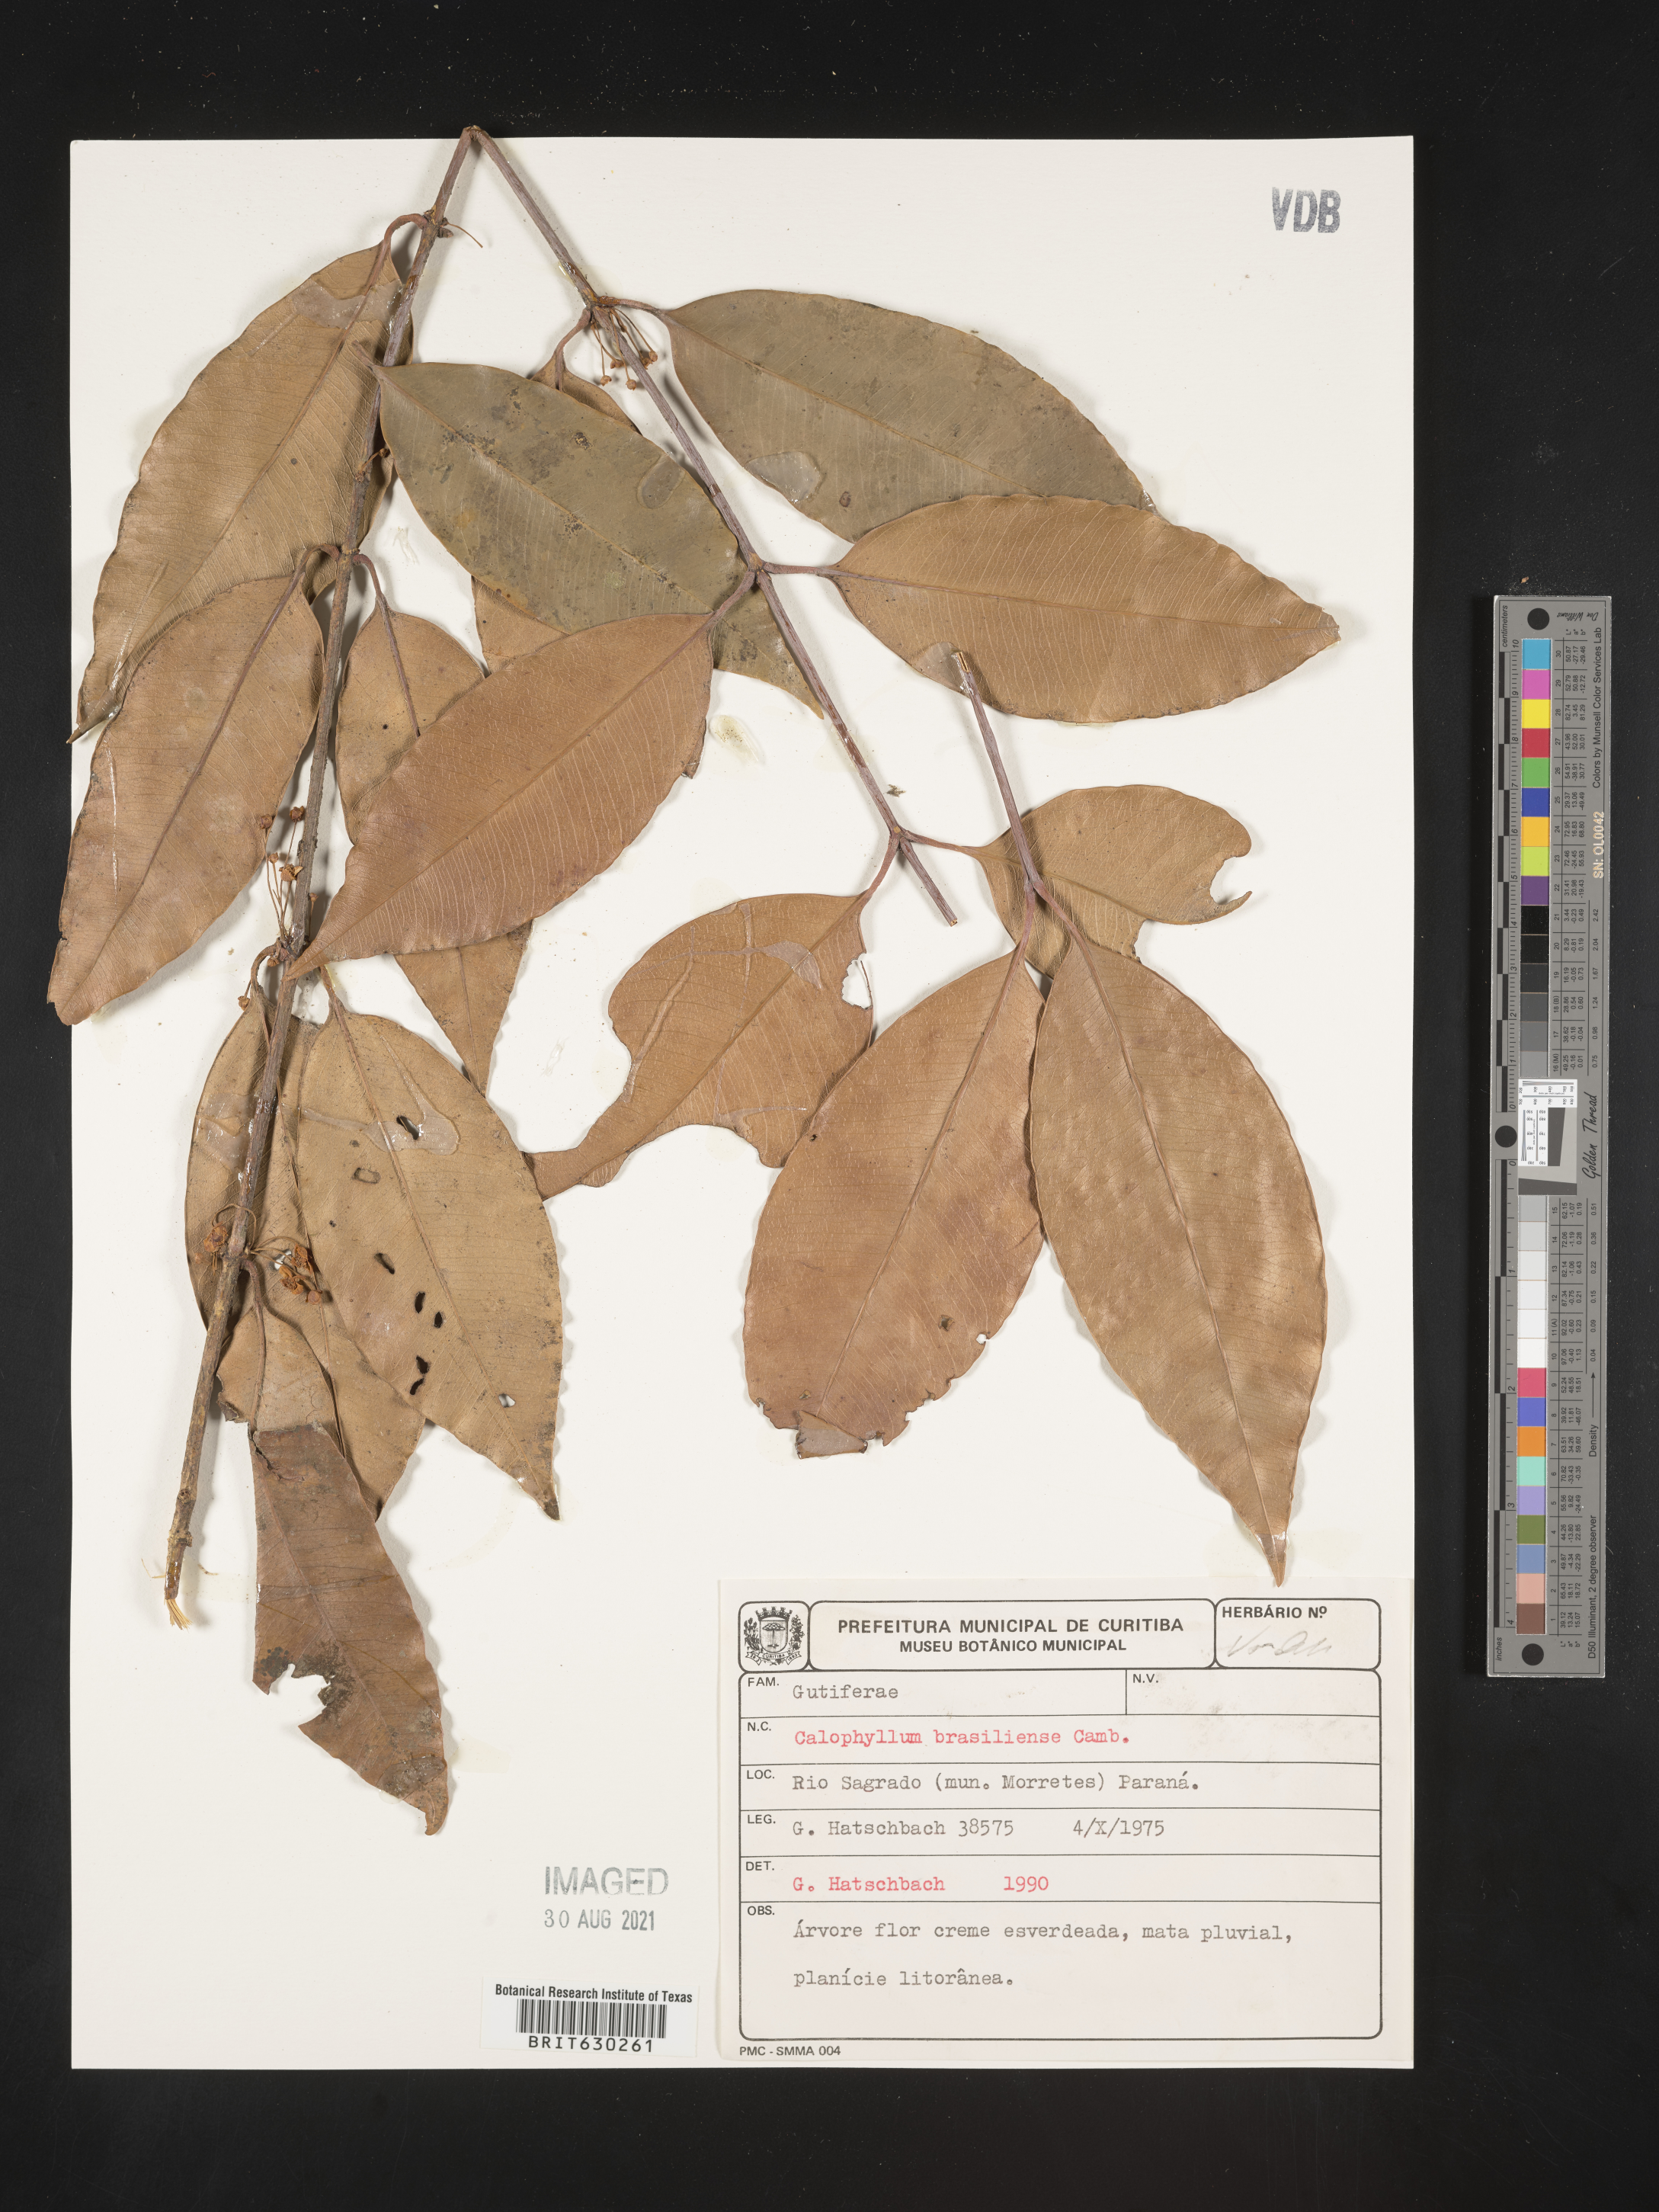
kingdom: Plantae
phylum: Tracheophyta
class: Magnoliopsida
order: Malpighiales
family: Calophyllaceae
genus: Calophyllum
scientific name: Calophyllum brasiliense
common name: Santa maria
